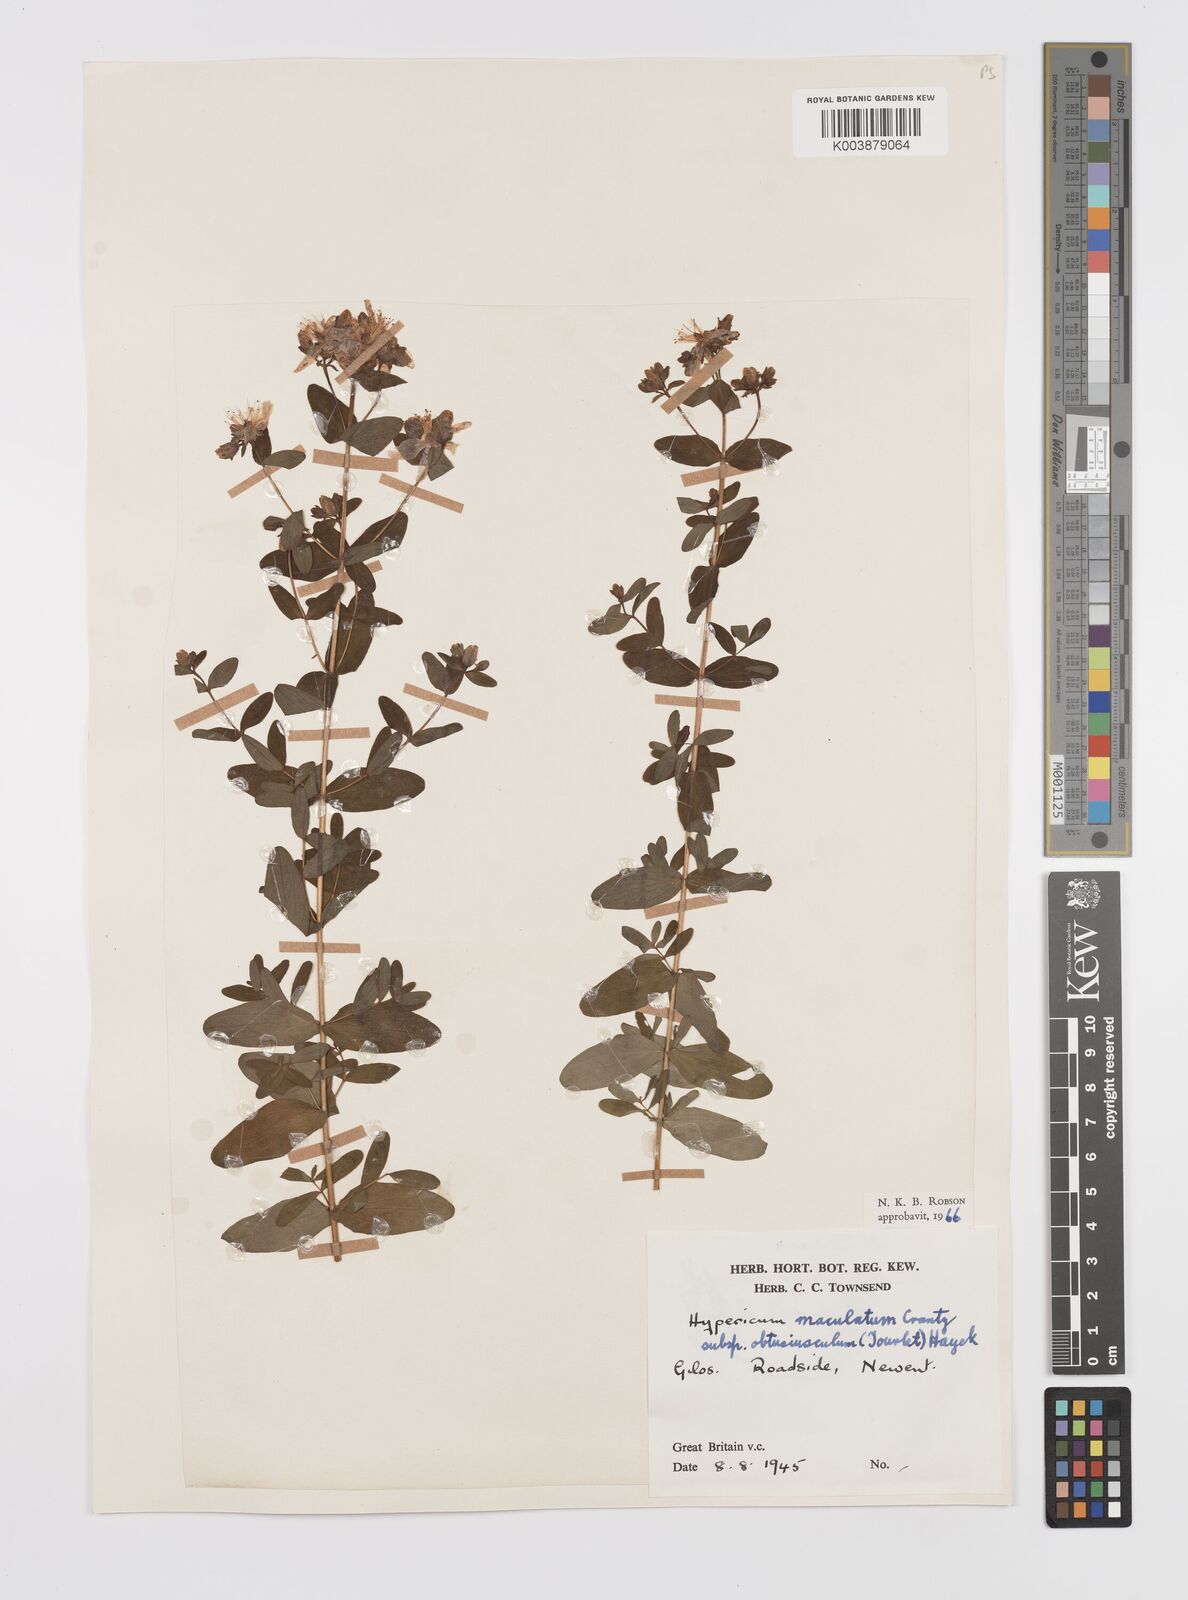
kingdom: Plantae
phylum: Tracheophyta
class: Magnoliopsida
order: Malpighiales
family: Hypericaceae
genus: Hypericum
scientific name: Hypericum dubium
